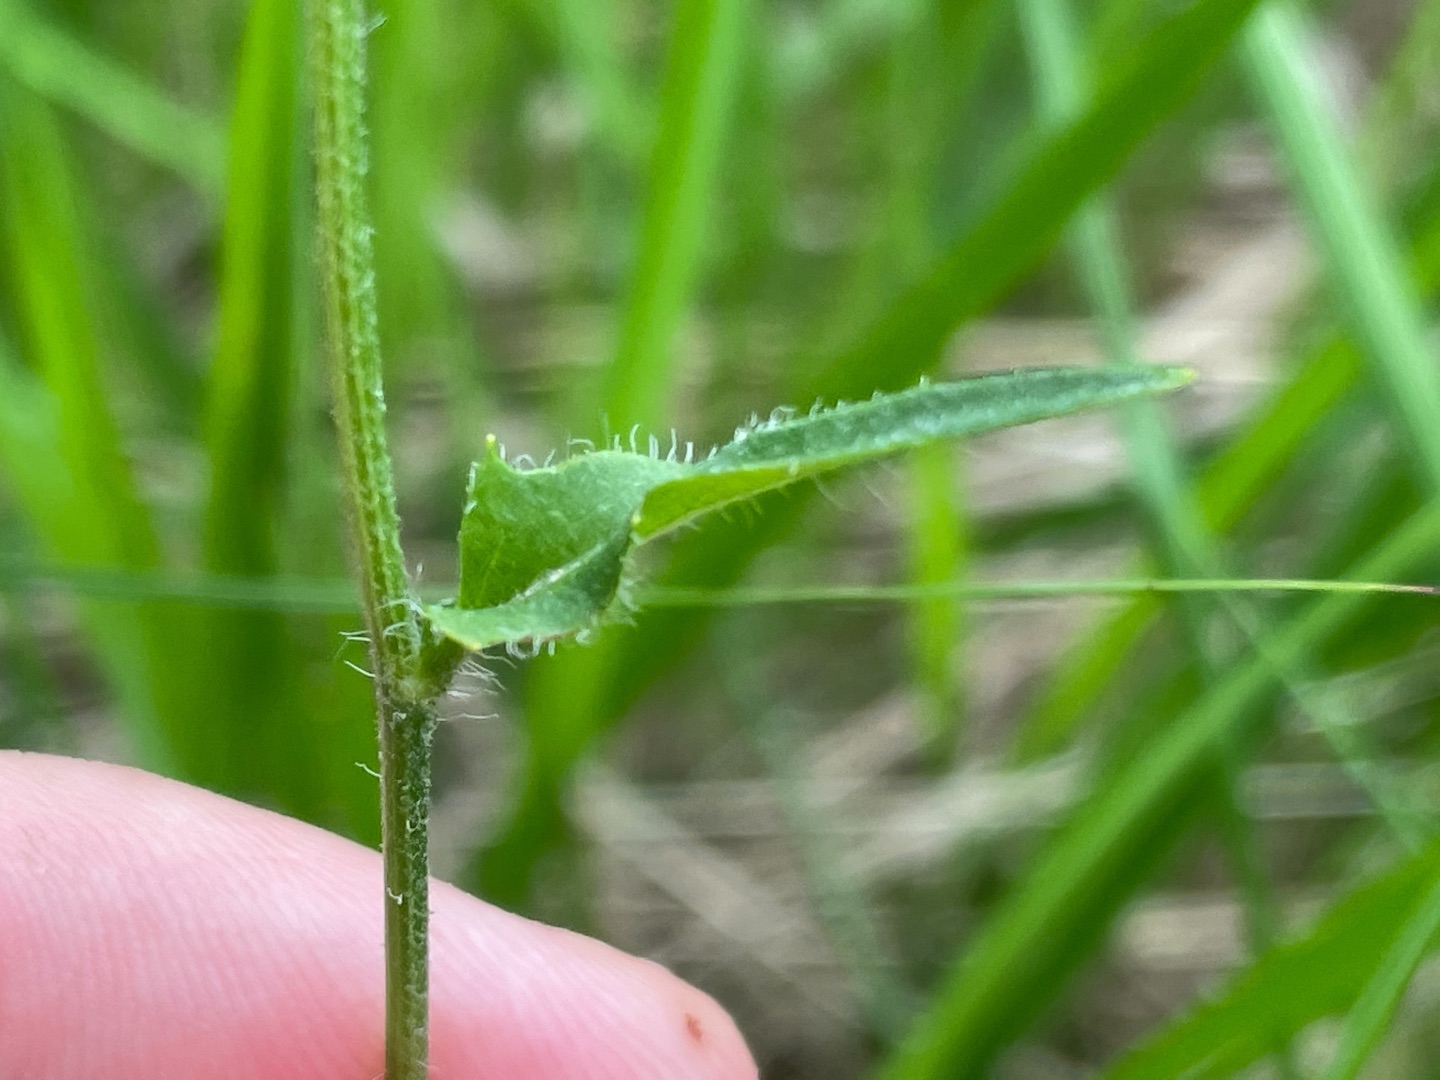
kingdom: Plantae
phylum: Tracheophyta
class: Magnoliopsida
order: Asterales
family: Asteraceae
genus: Hieracium
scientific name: Hieracium vulgatum
